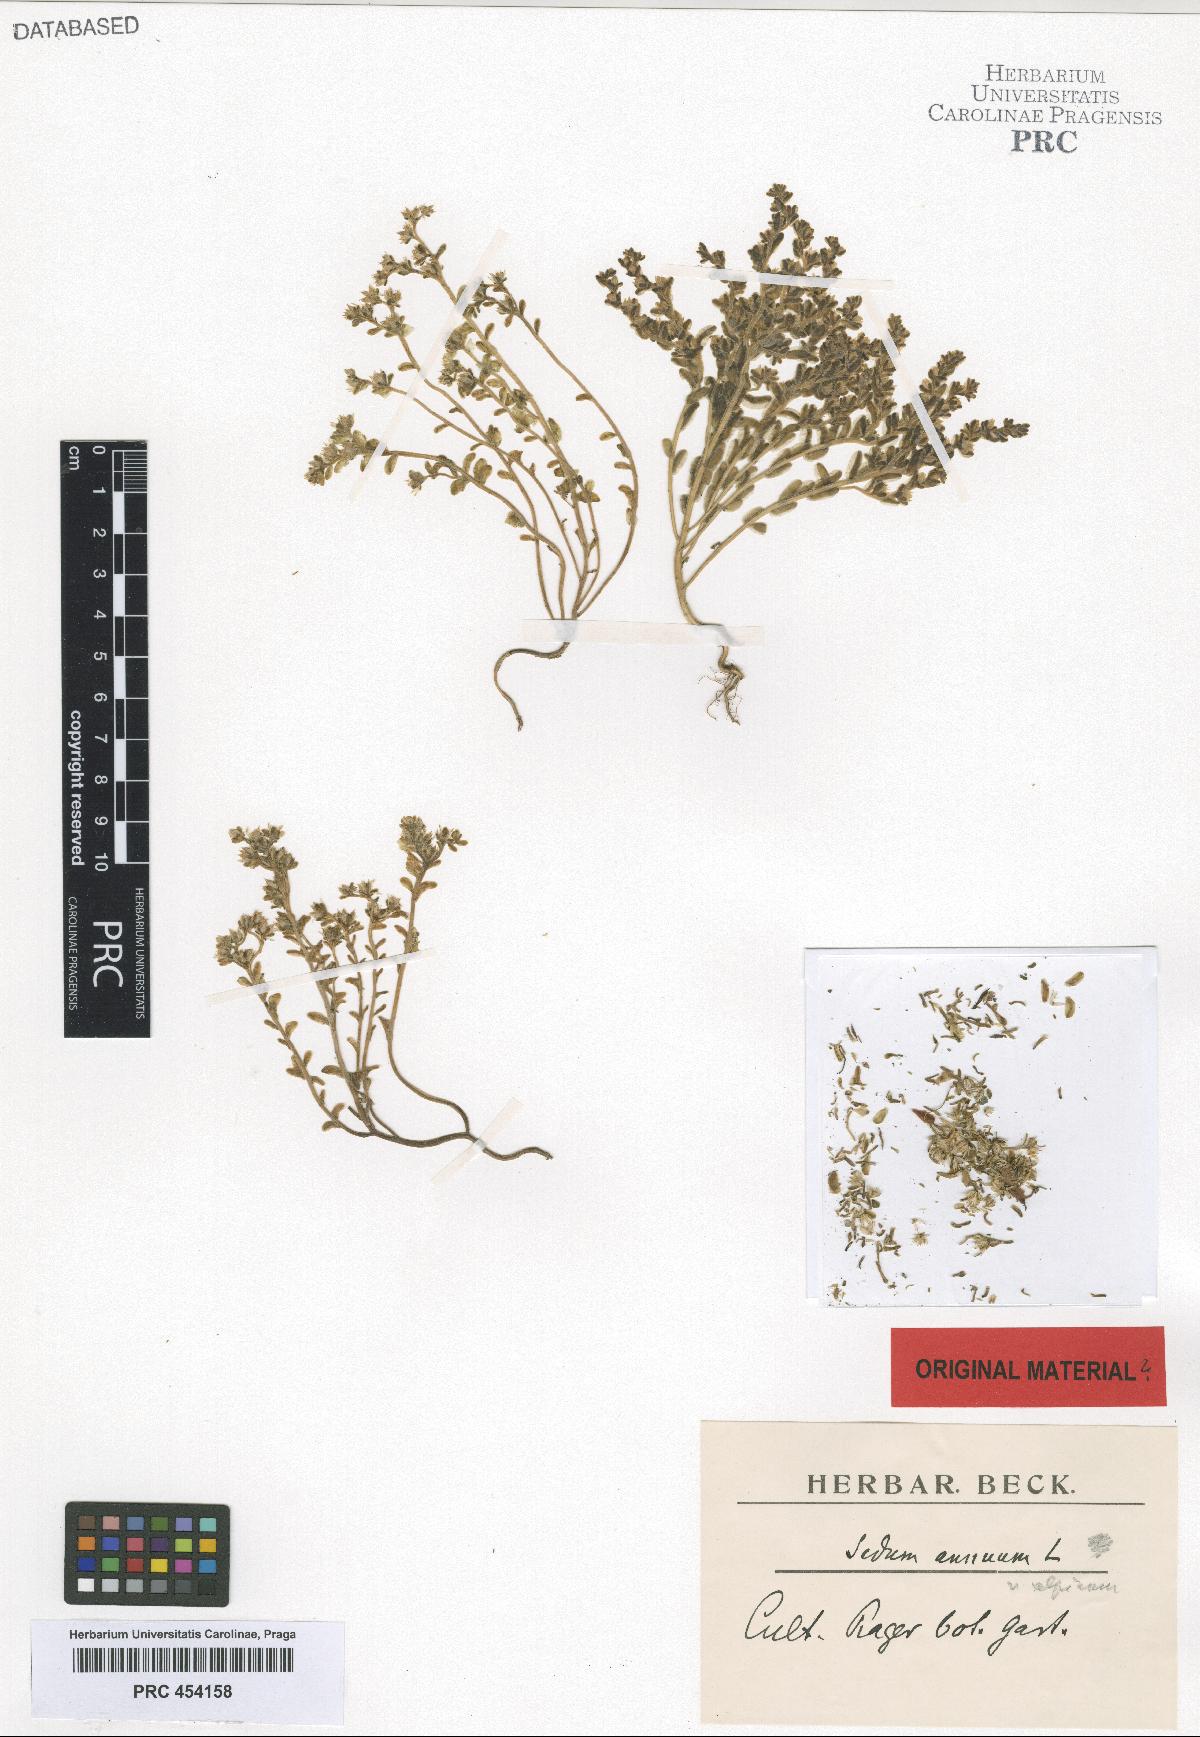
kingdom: Plantae
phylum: Tracheophyta
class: Magnoliopsida
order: Saxifragales
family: Crassulaceae
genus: Sedum
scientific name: Sedum annuum
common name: Annual stonecrop
